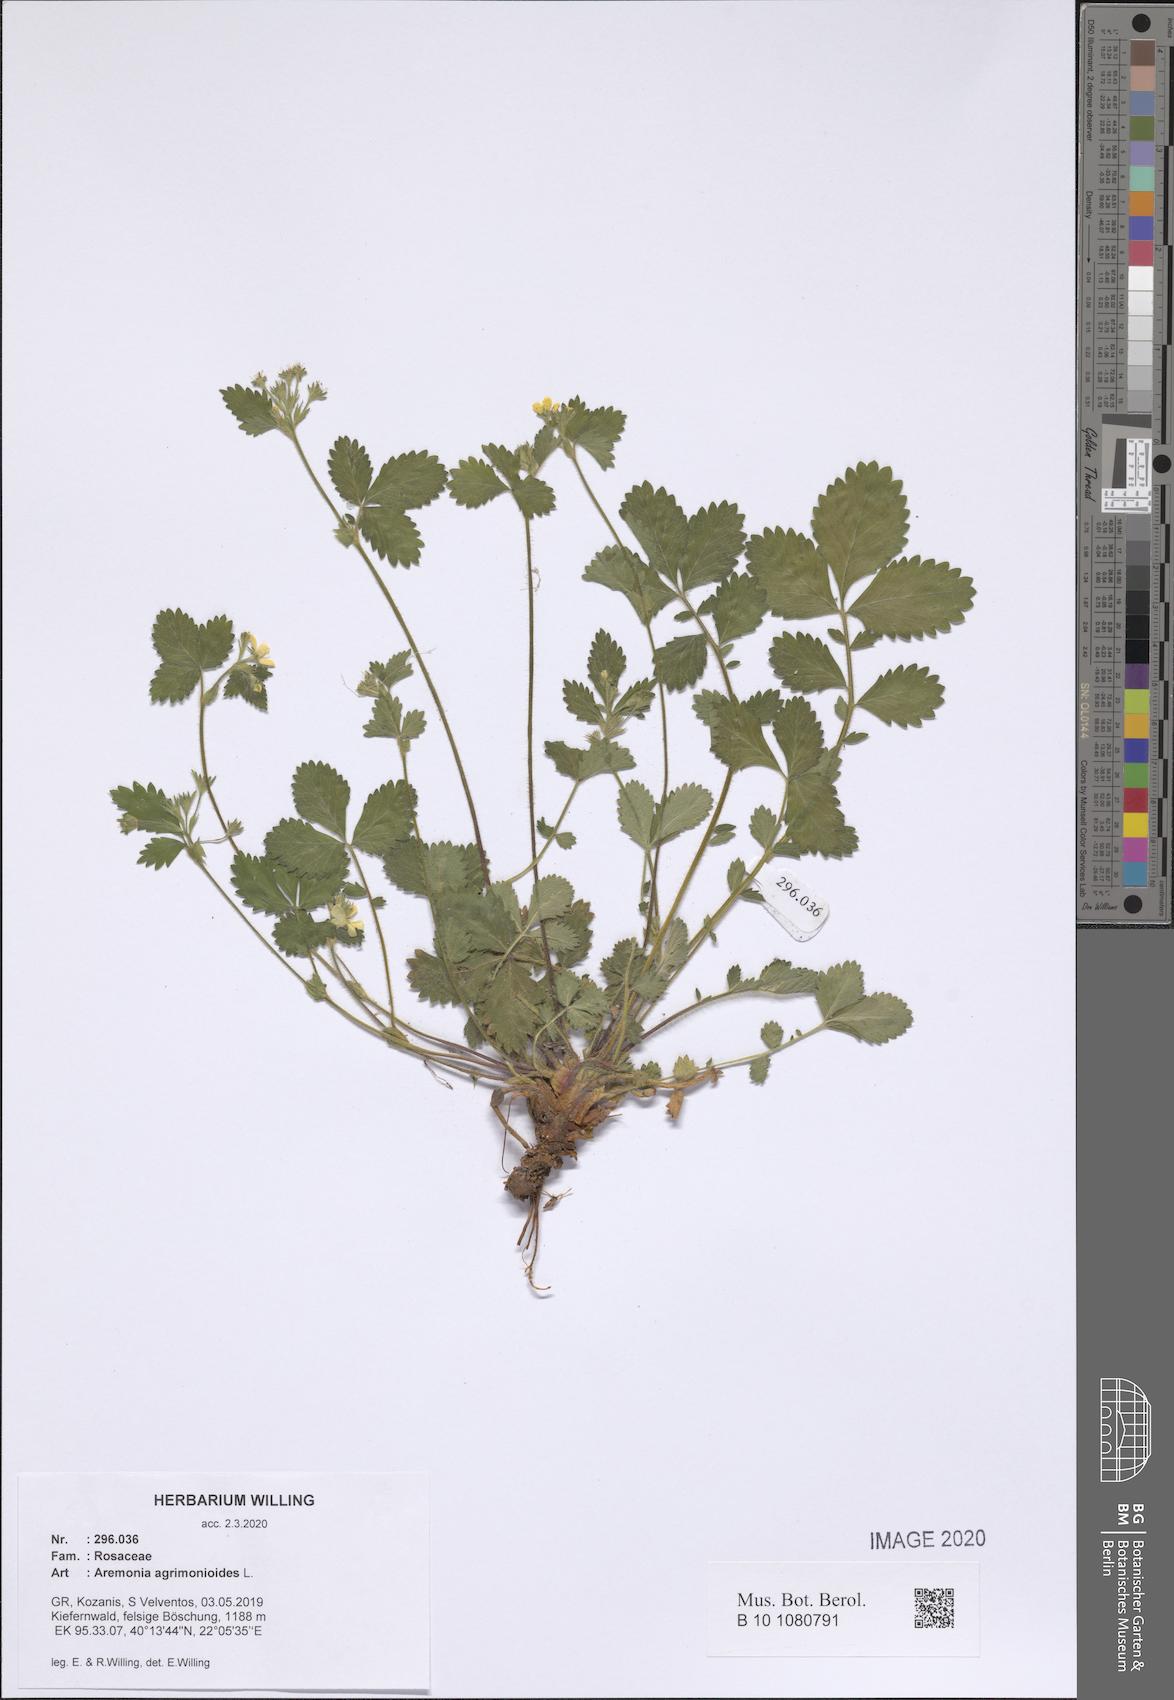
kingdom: Plantae
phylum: Tracheophyta
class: Magnoliopsida
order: Rosales
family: Rosaceae
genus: Aremonia
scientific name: Aremonia agrimonioides
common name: Bastard agrimony
